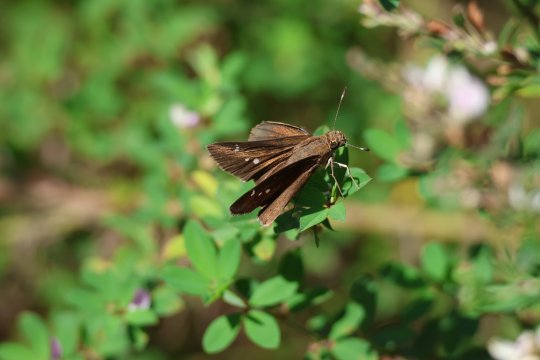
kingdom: Animalia
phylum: Arthropoda
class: Insecta
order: Lepidoptera
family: Hesperiidae
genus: Lerema
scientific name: Lerema accius
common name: Clouded Skipper
